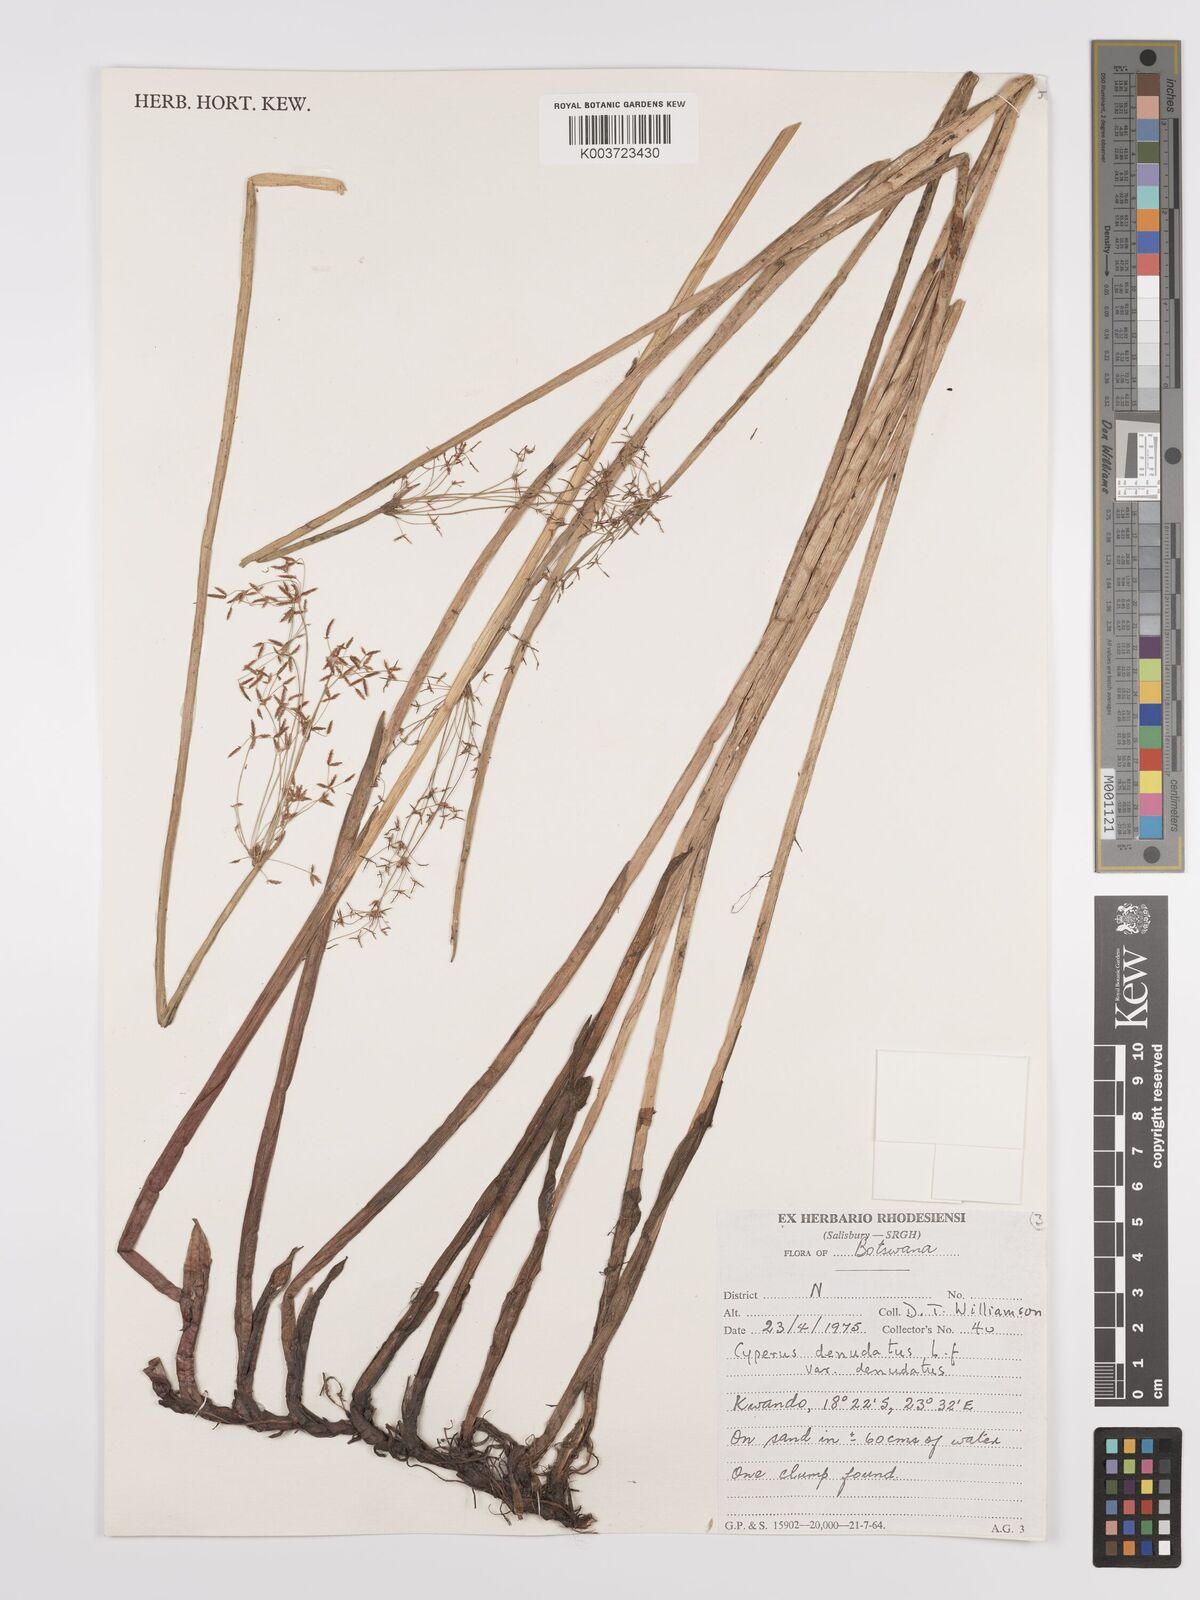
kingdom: Plantae
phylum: Tracheophyta
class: Liliopsida
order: Poales
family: Cyperaceae
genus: Cyperus
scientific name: Cyperus denudatus
